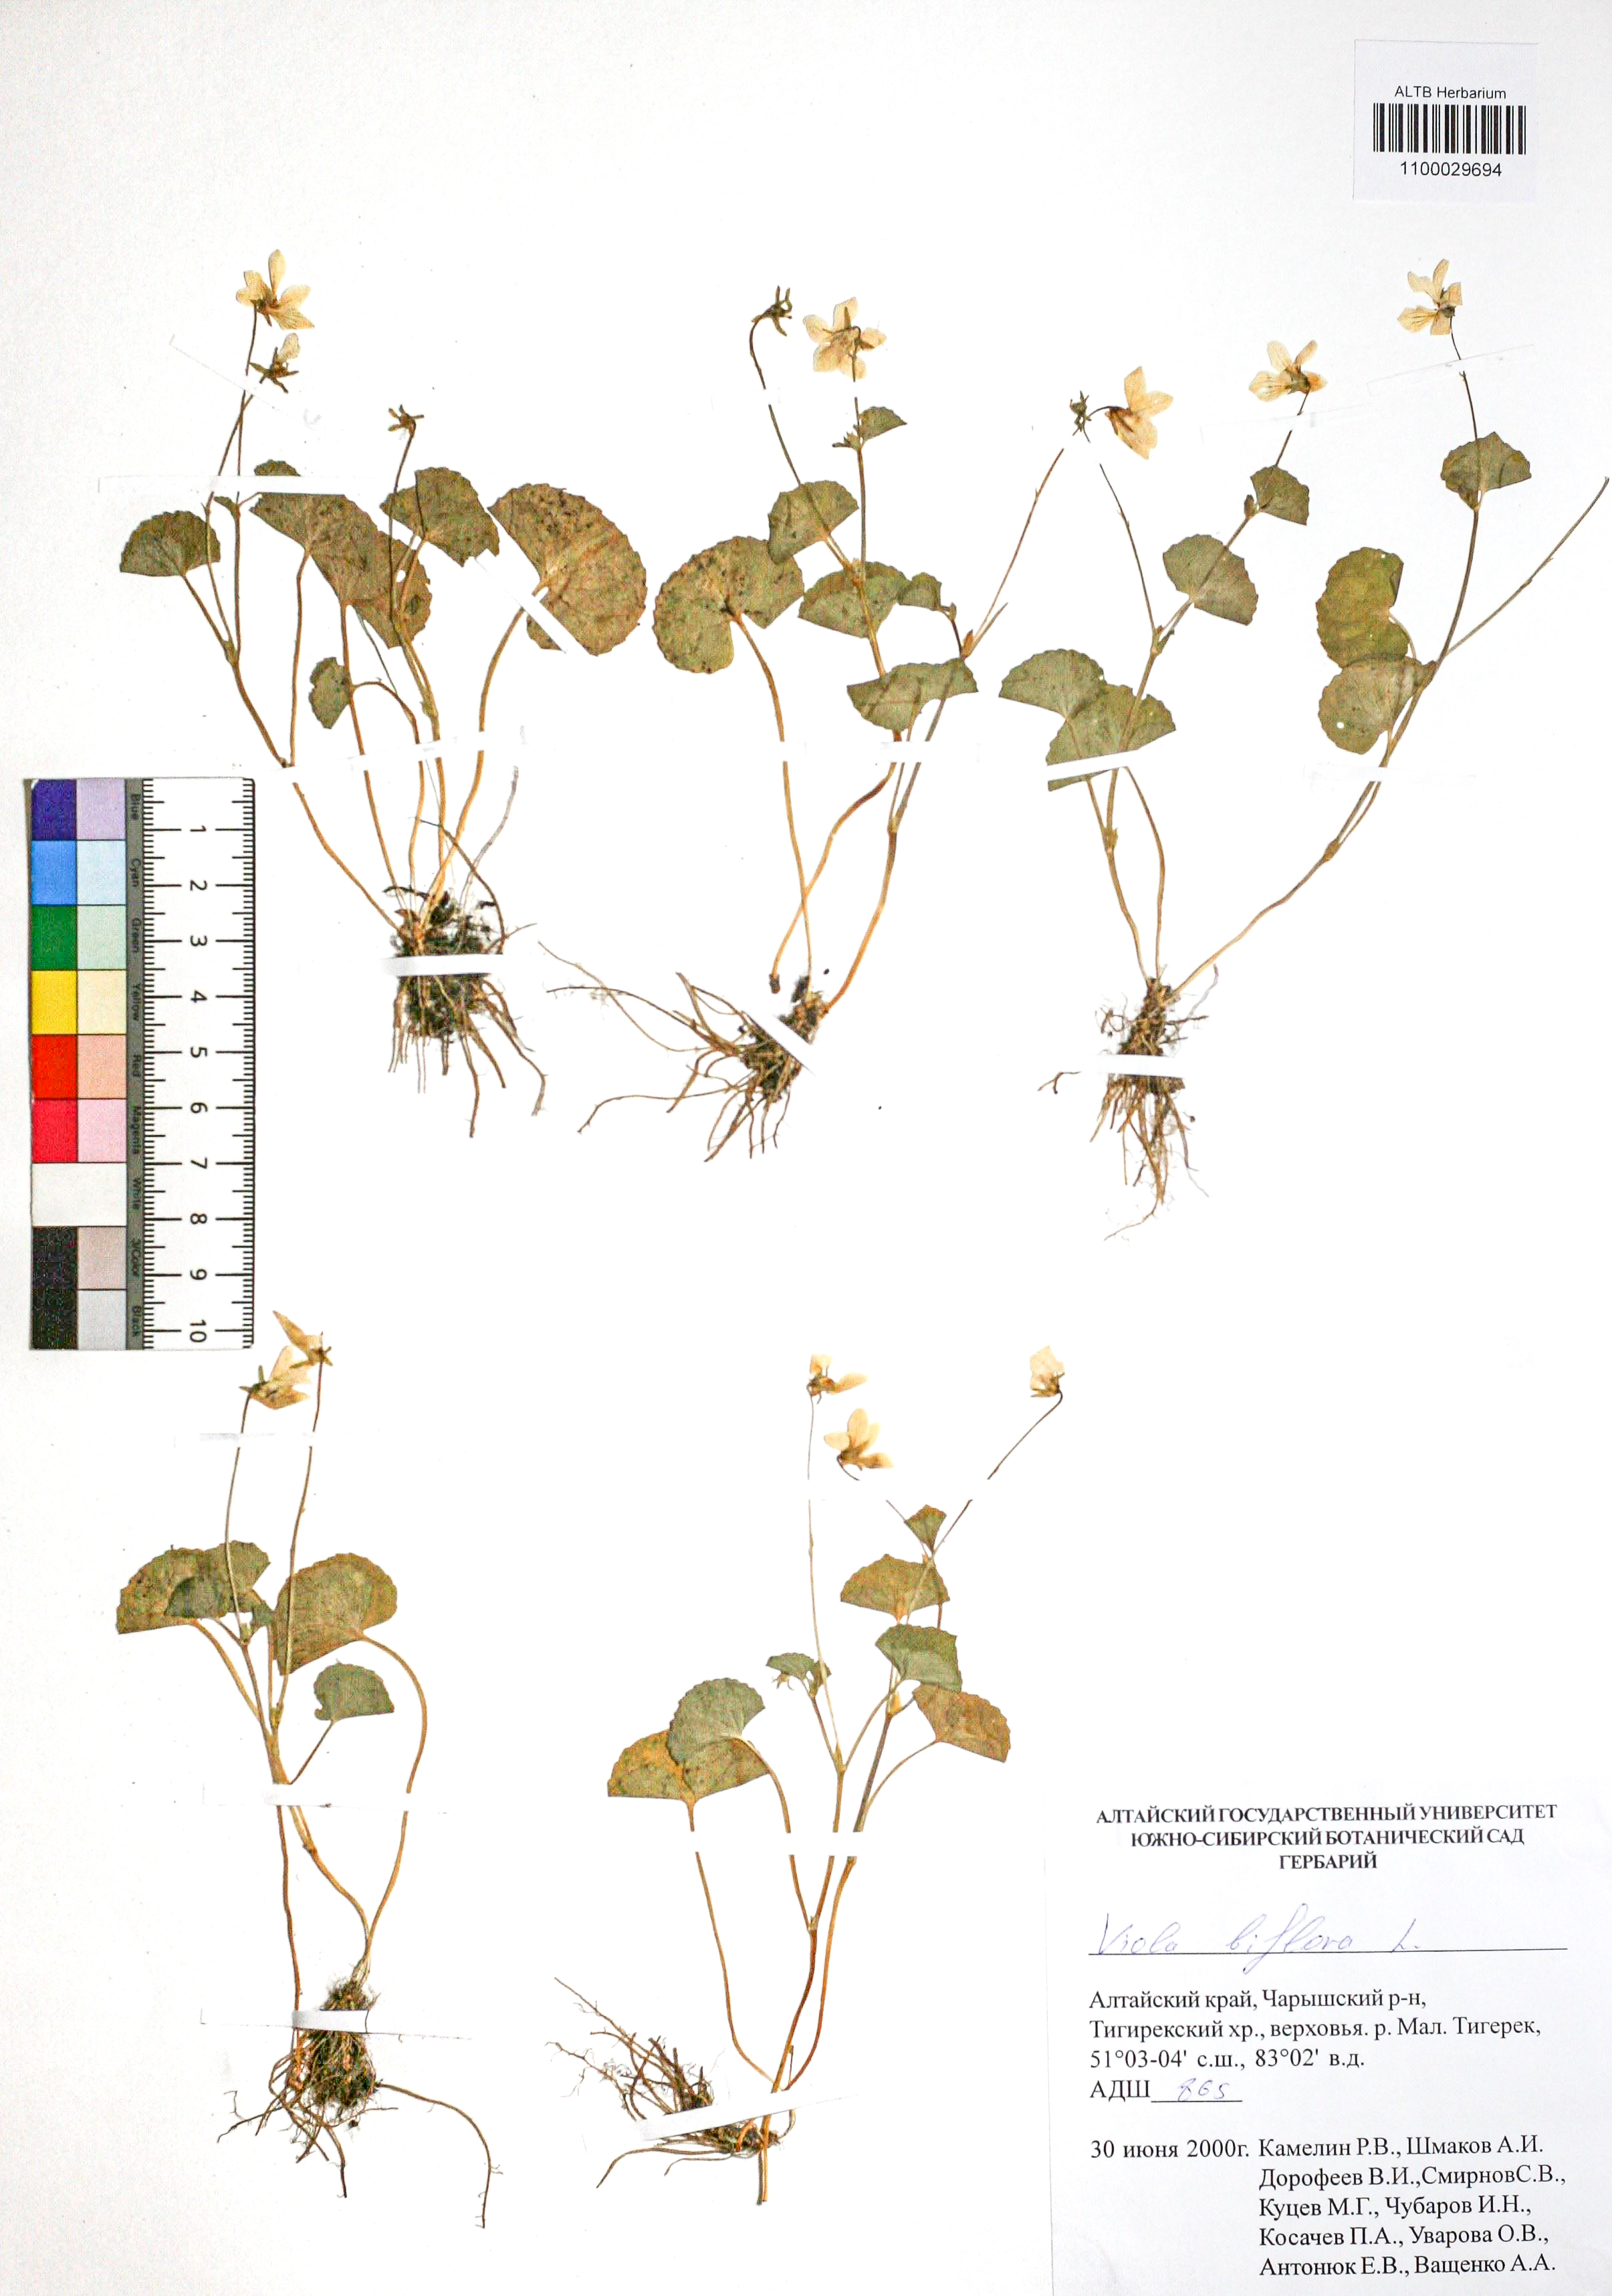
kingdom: Plantae
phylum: Tracheophyta
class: Magnoliopsida
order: Malpighiales
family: Violaceae
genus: Viola
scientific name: Viola biflora
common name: Alpine yellow violet
